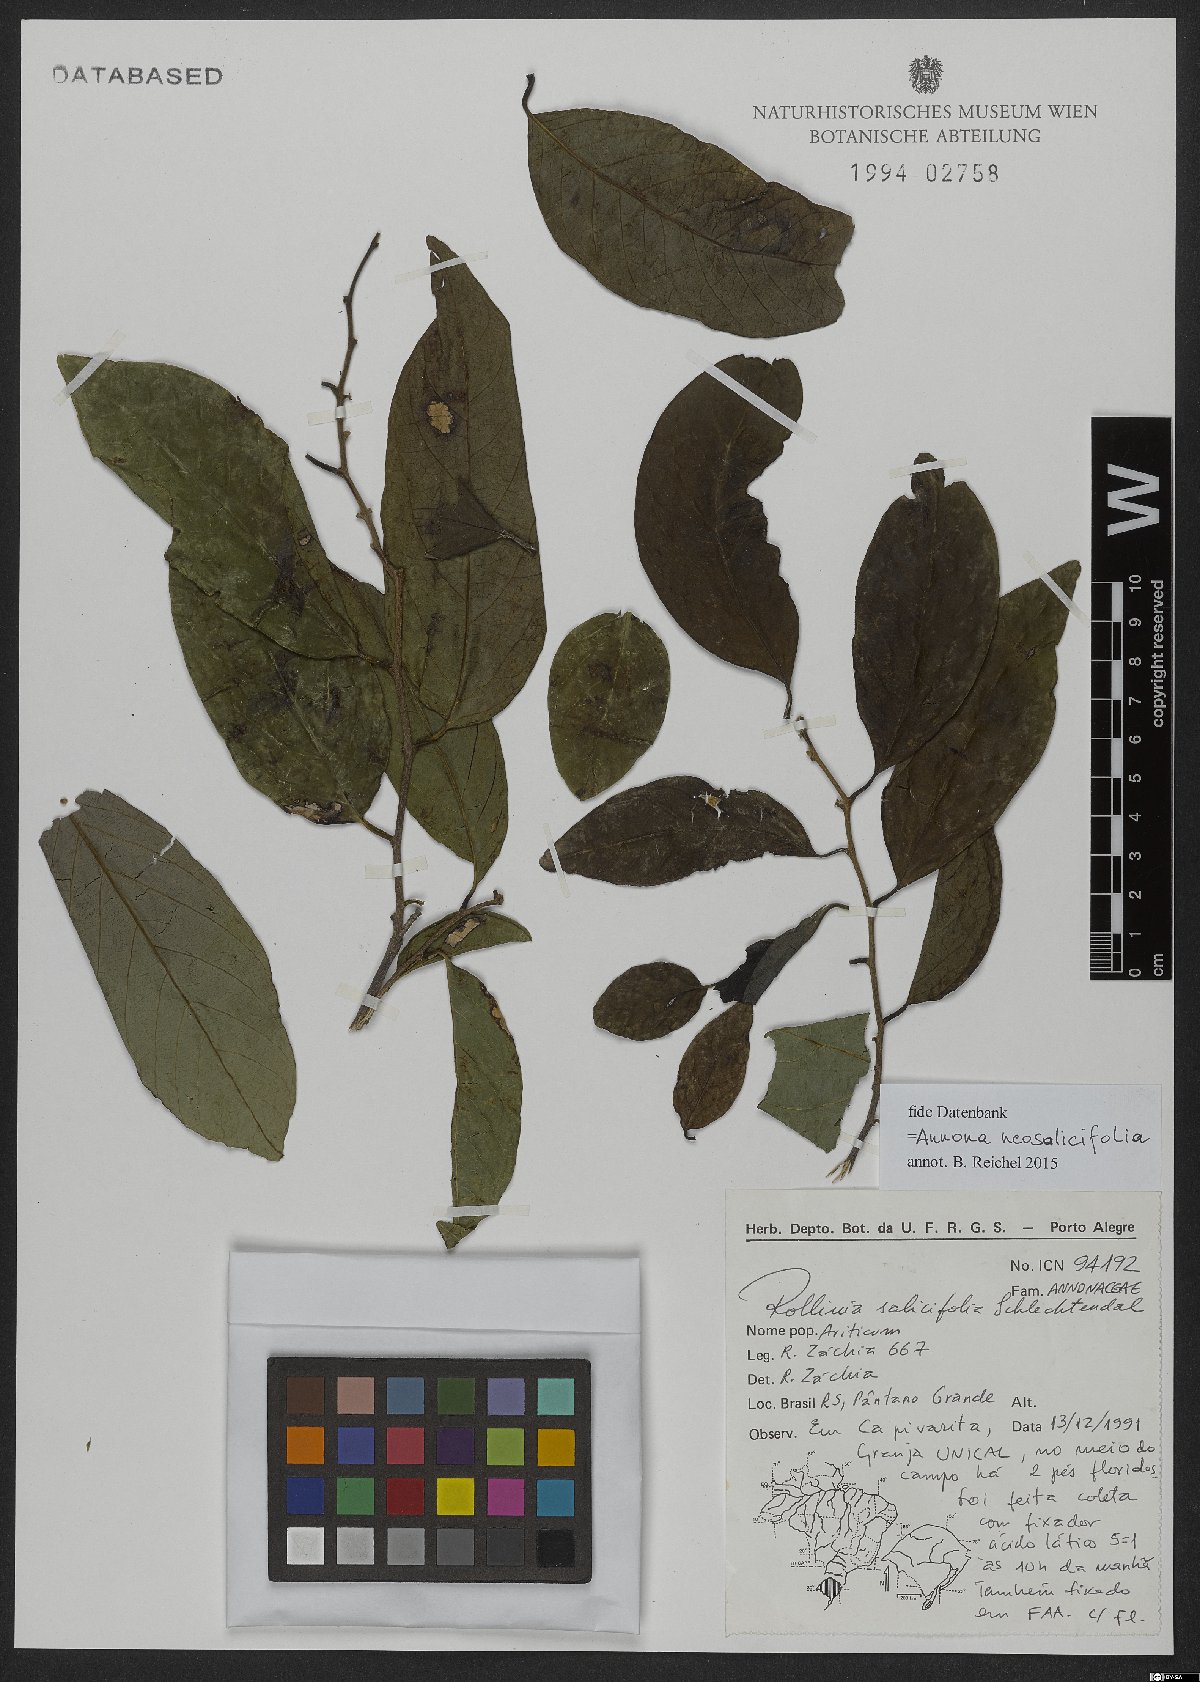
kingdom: Plantae
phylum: Tracheophyta
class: Magnoliopsida
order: Magnoliales
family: Annonaceae
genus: Annona
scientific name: Annona neosalicifolia
